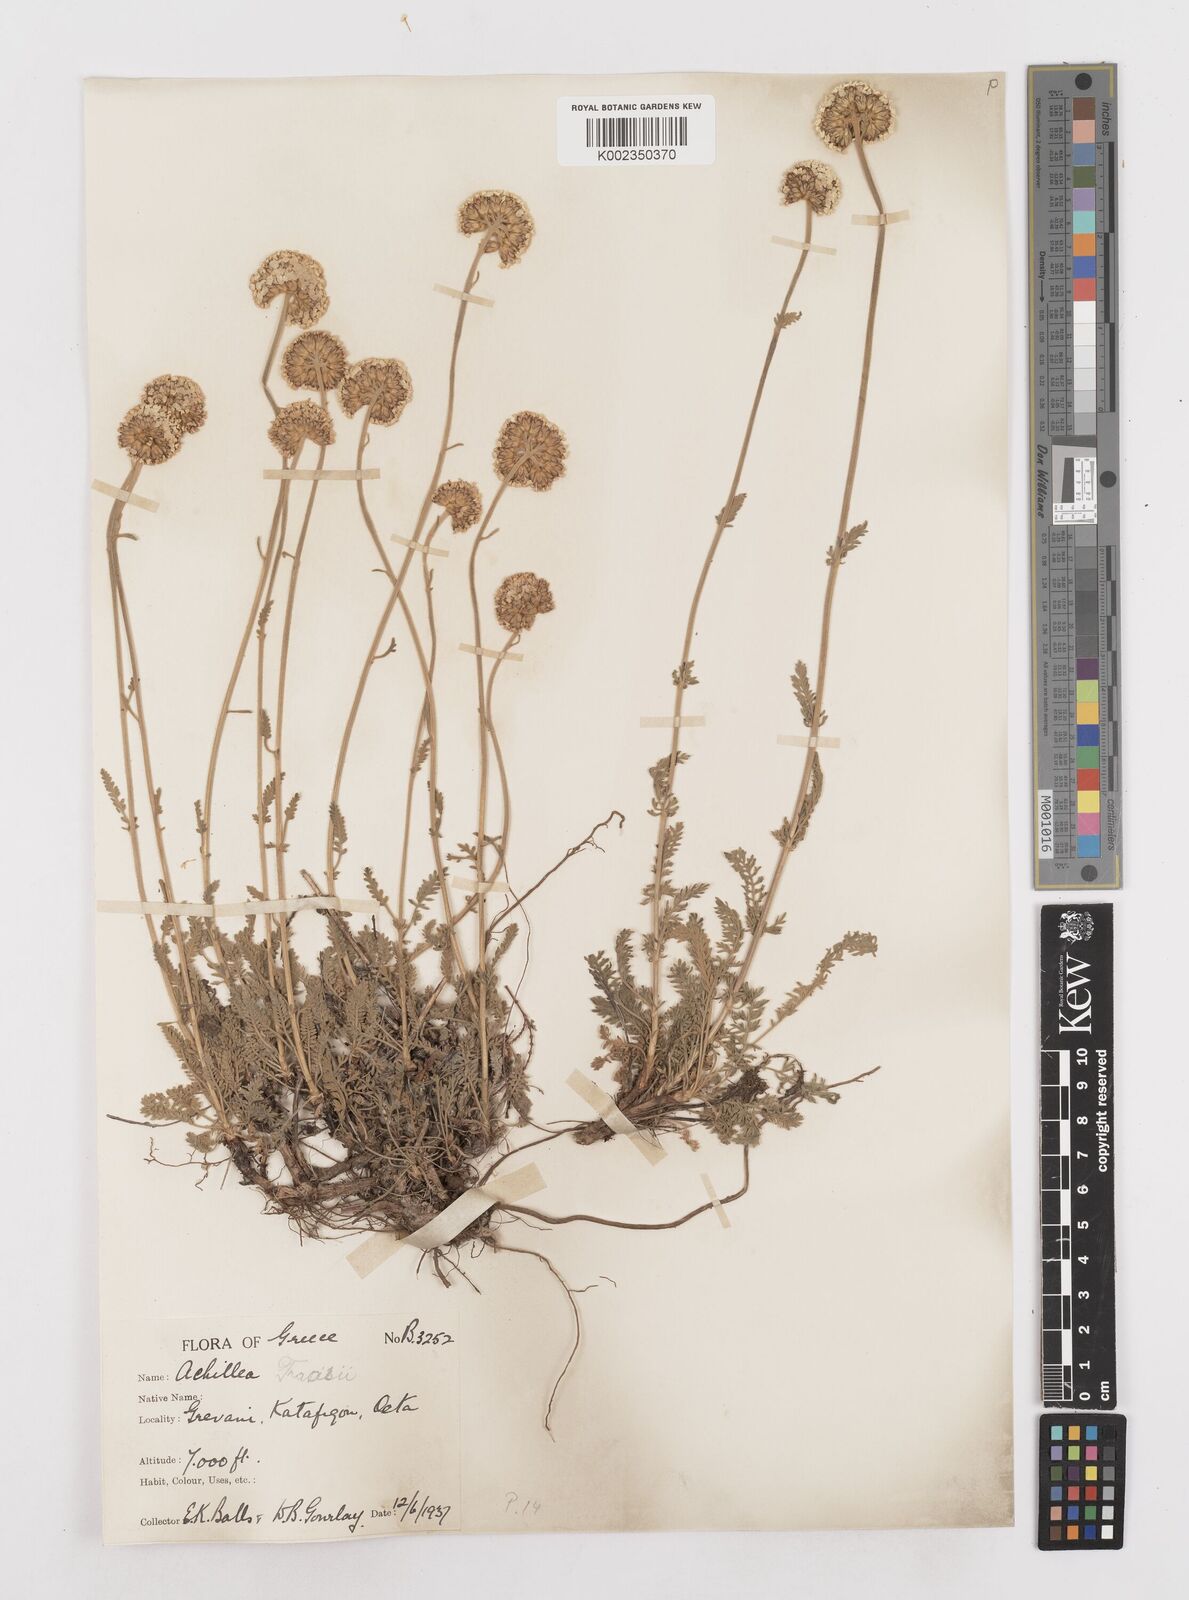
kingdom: Plantae
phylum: Tracheophyta
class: Magnoliopsida
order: Asterales
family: Asteraceae
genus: Achillea
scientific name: Achillea fraasii
